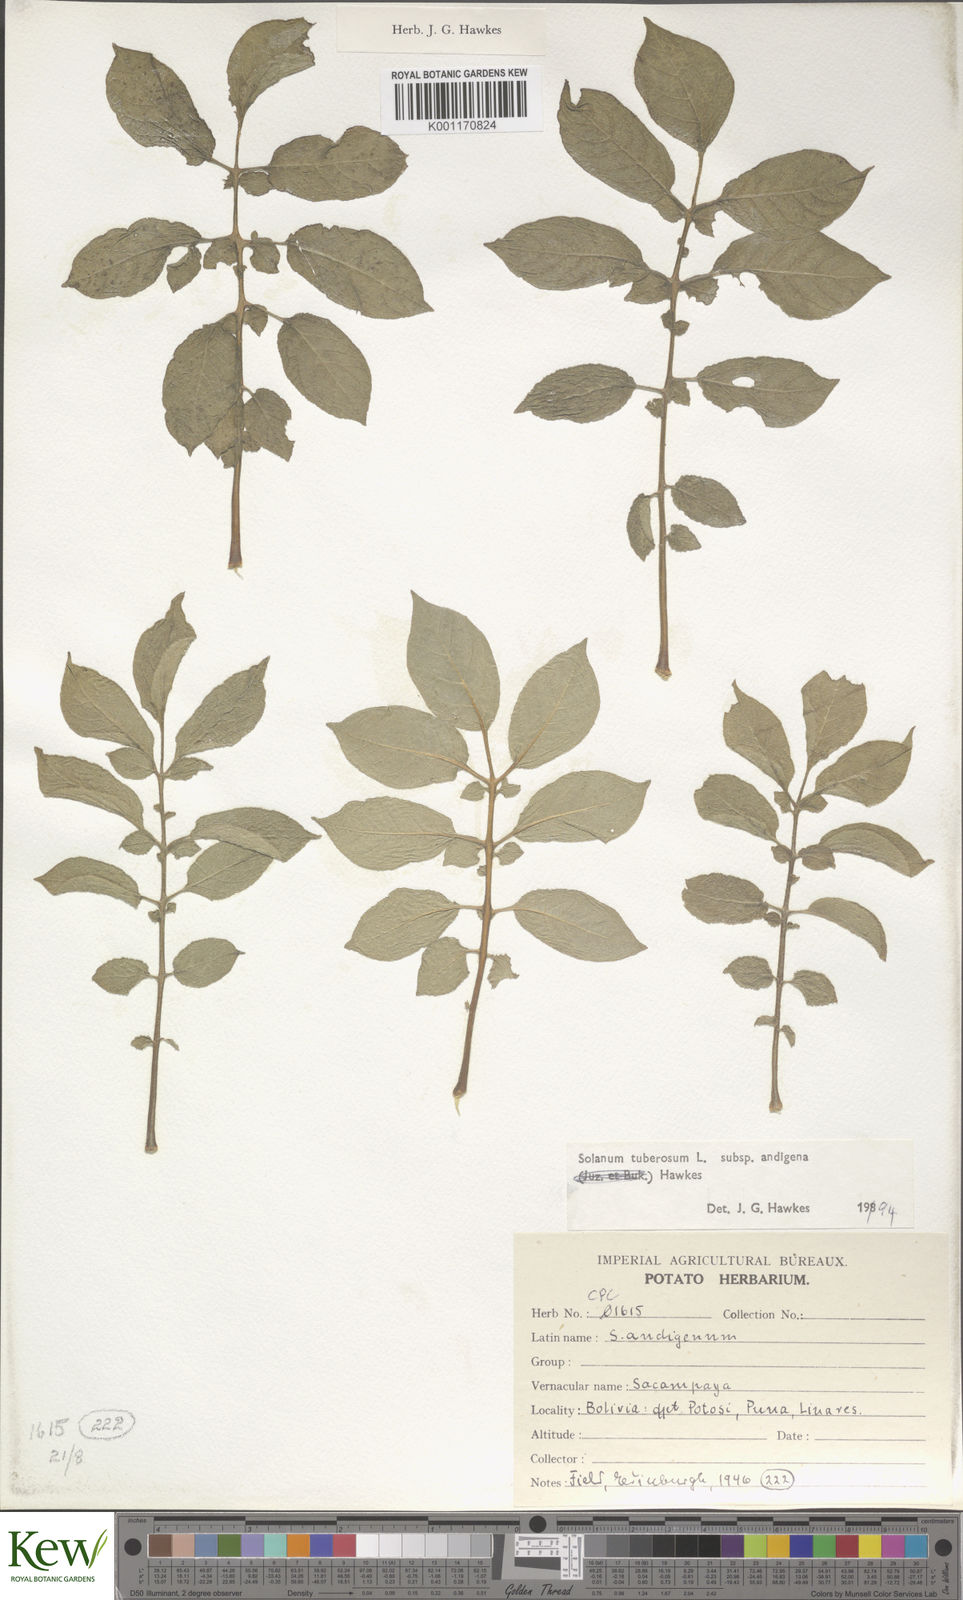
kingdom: Plantae
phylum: Tracheophyta
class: Magnoliopsida
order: Solanales
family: Solanaceae
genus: Solanum
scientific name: Solanum tuberosum
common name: Potato
